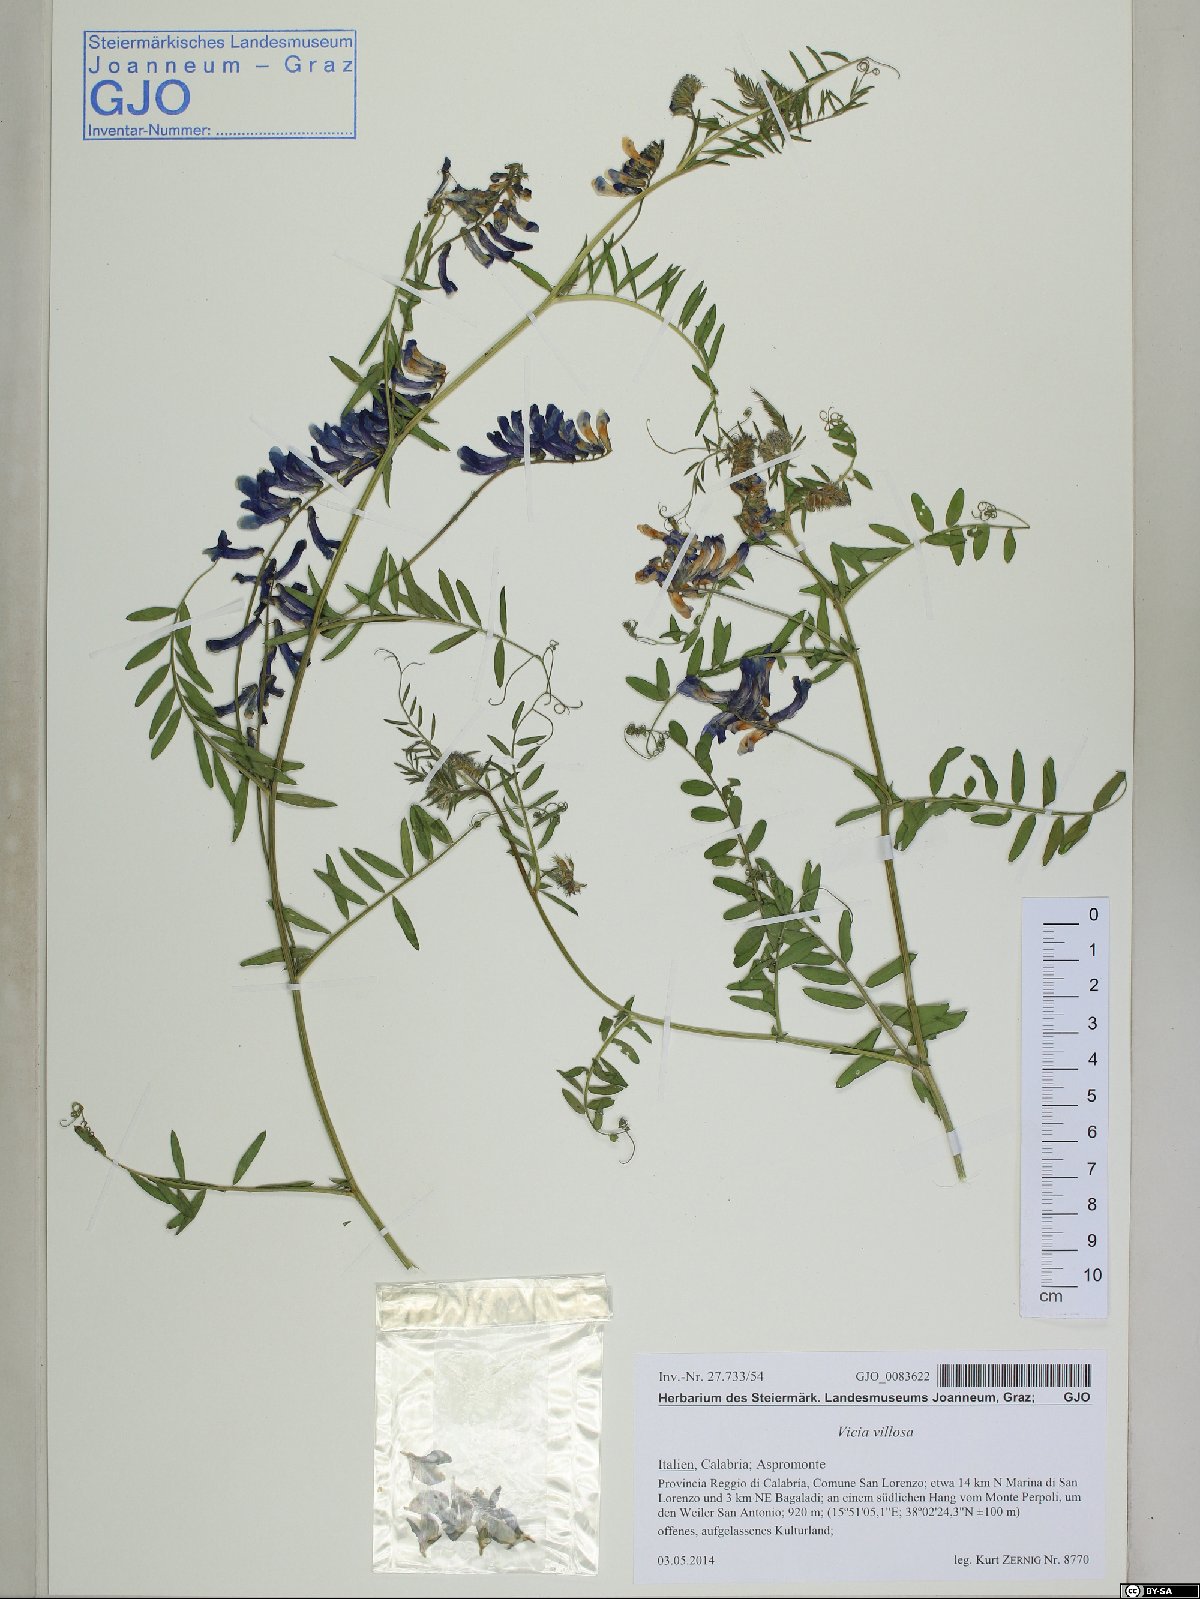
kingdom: Plantae
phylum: Tracheophyta
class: Magnoliopsida
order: Fabales
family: Fabaceae
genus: Vicia
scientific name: Vicia villosa
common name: Fodder vetch
